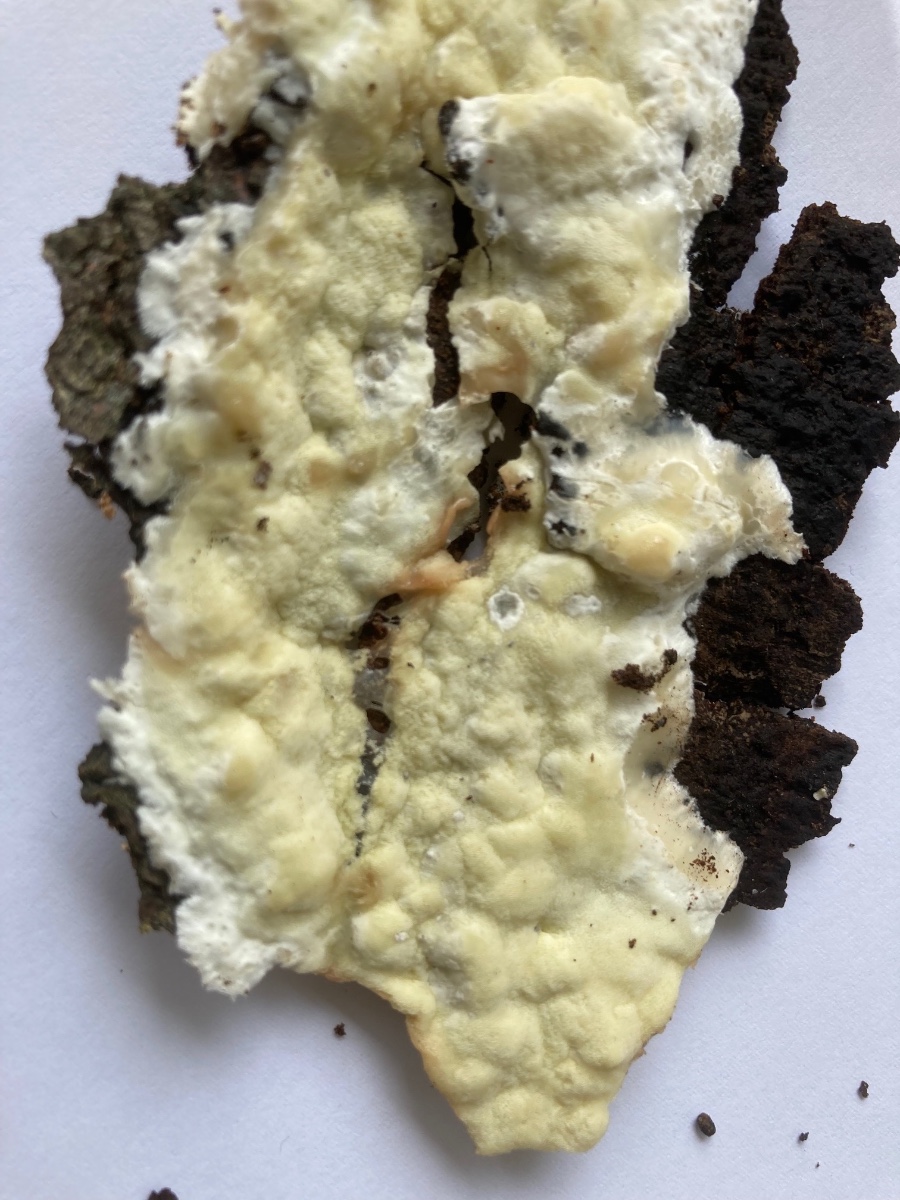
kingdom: Fungi
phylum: Basidiomycota
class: Agaricomycetes
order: Polyporales
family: Irpicaceae
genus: Gloeoporus
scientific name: Gloeoporus pannocinctus
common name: grøngul foldporesvamp
